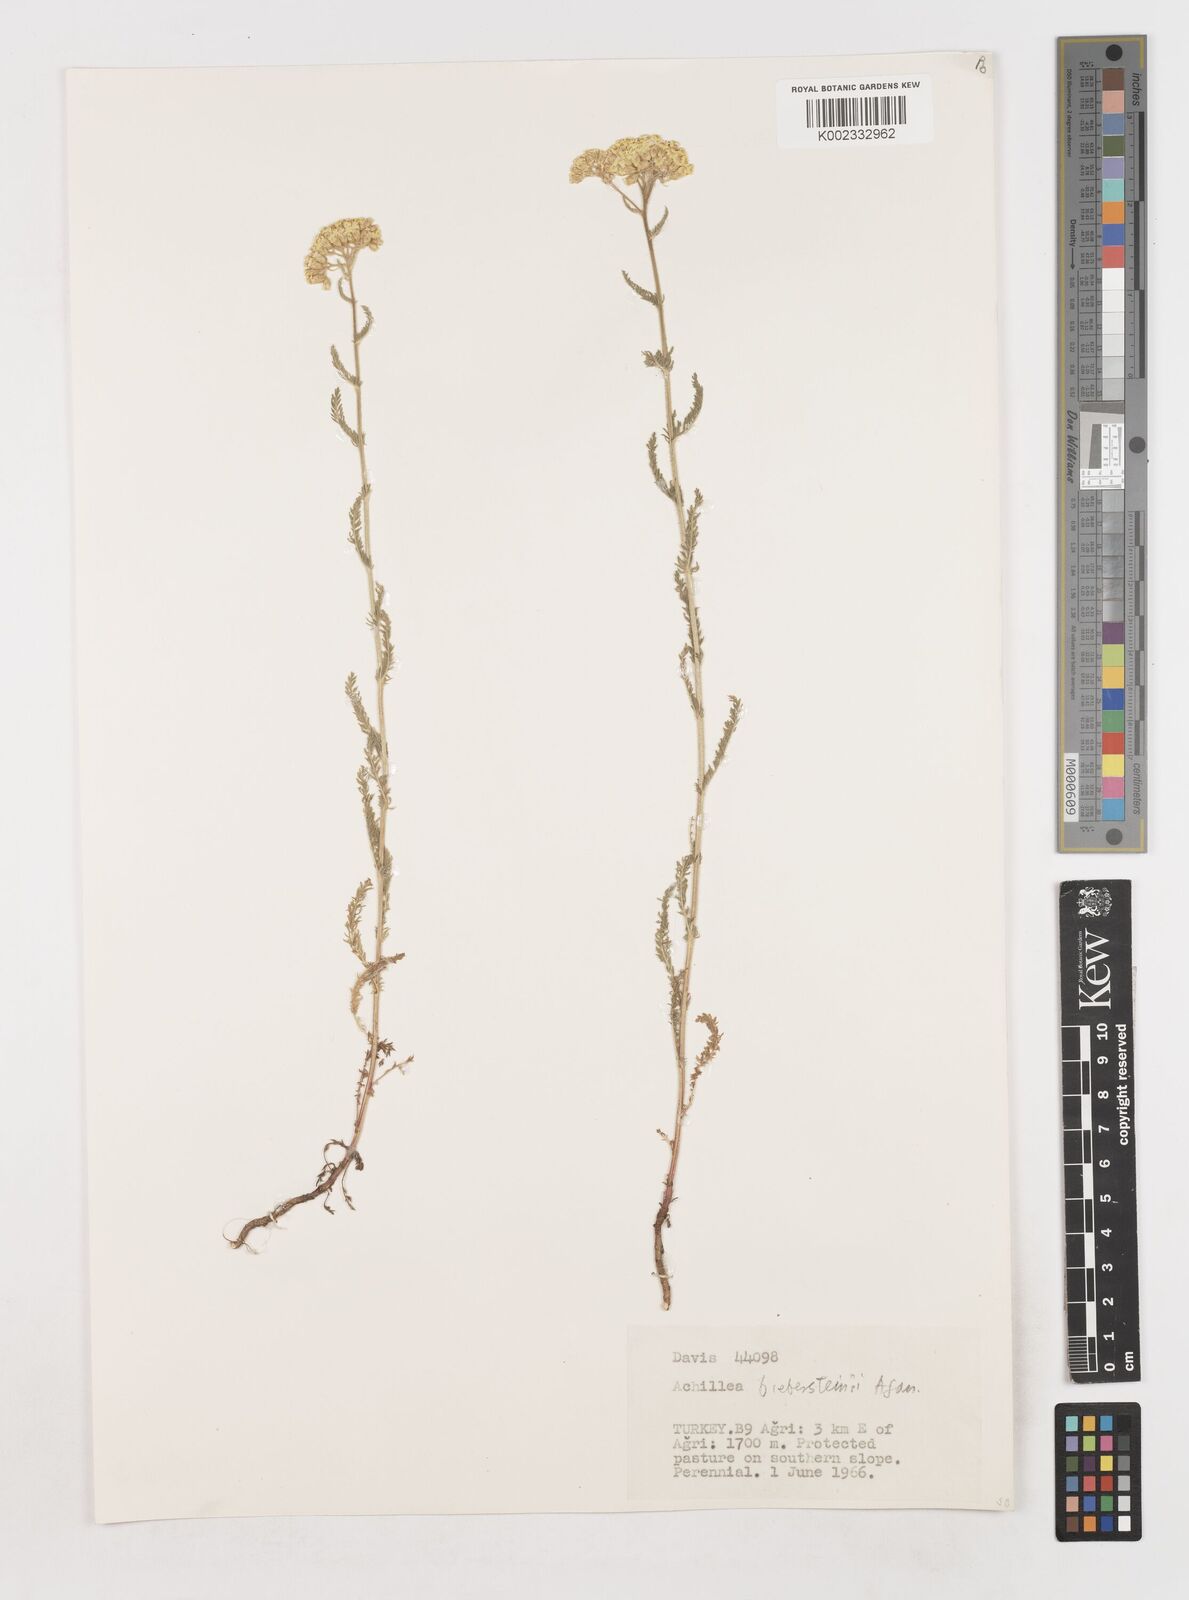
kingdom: Plantae
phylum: Tracheophyta
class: Magnoliopsida
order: Asterales
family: Asteraceae
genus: Achillea
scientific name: Achillea arabica
